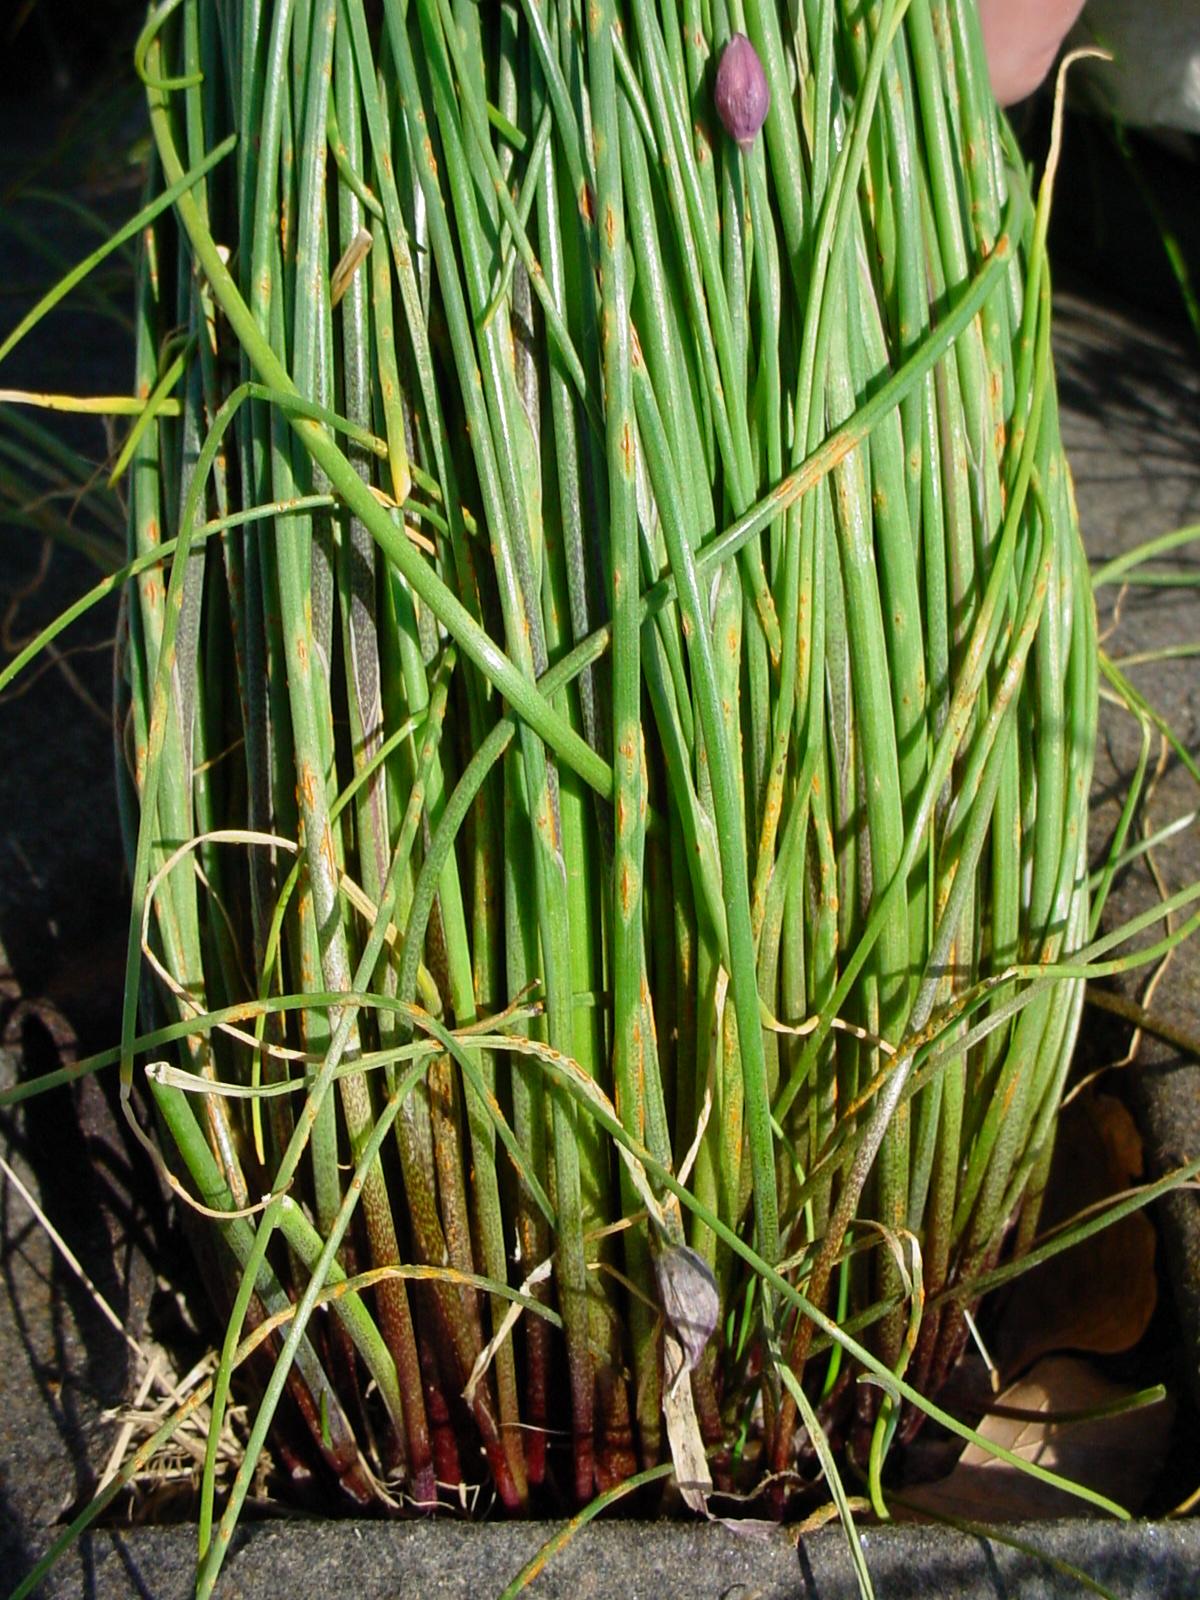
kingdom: Plantae
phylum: Tracheophyta
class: Liliopsida
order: Asparagales
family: Amaryllidaceae
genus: Allium
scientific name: Allium schoenoprasum
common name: Chives
